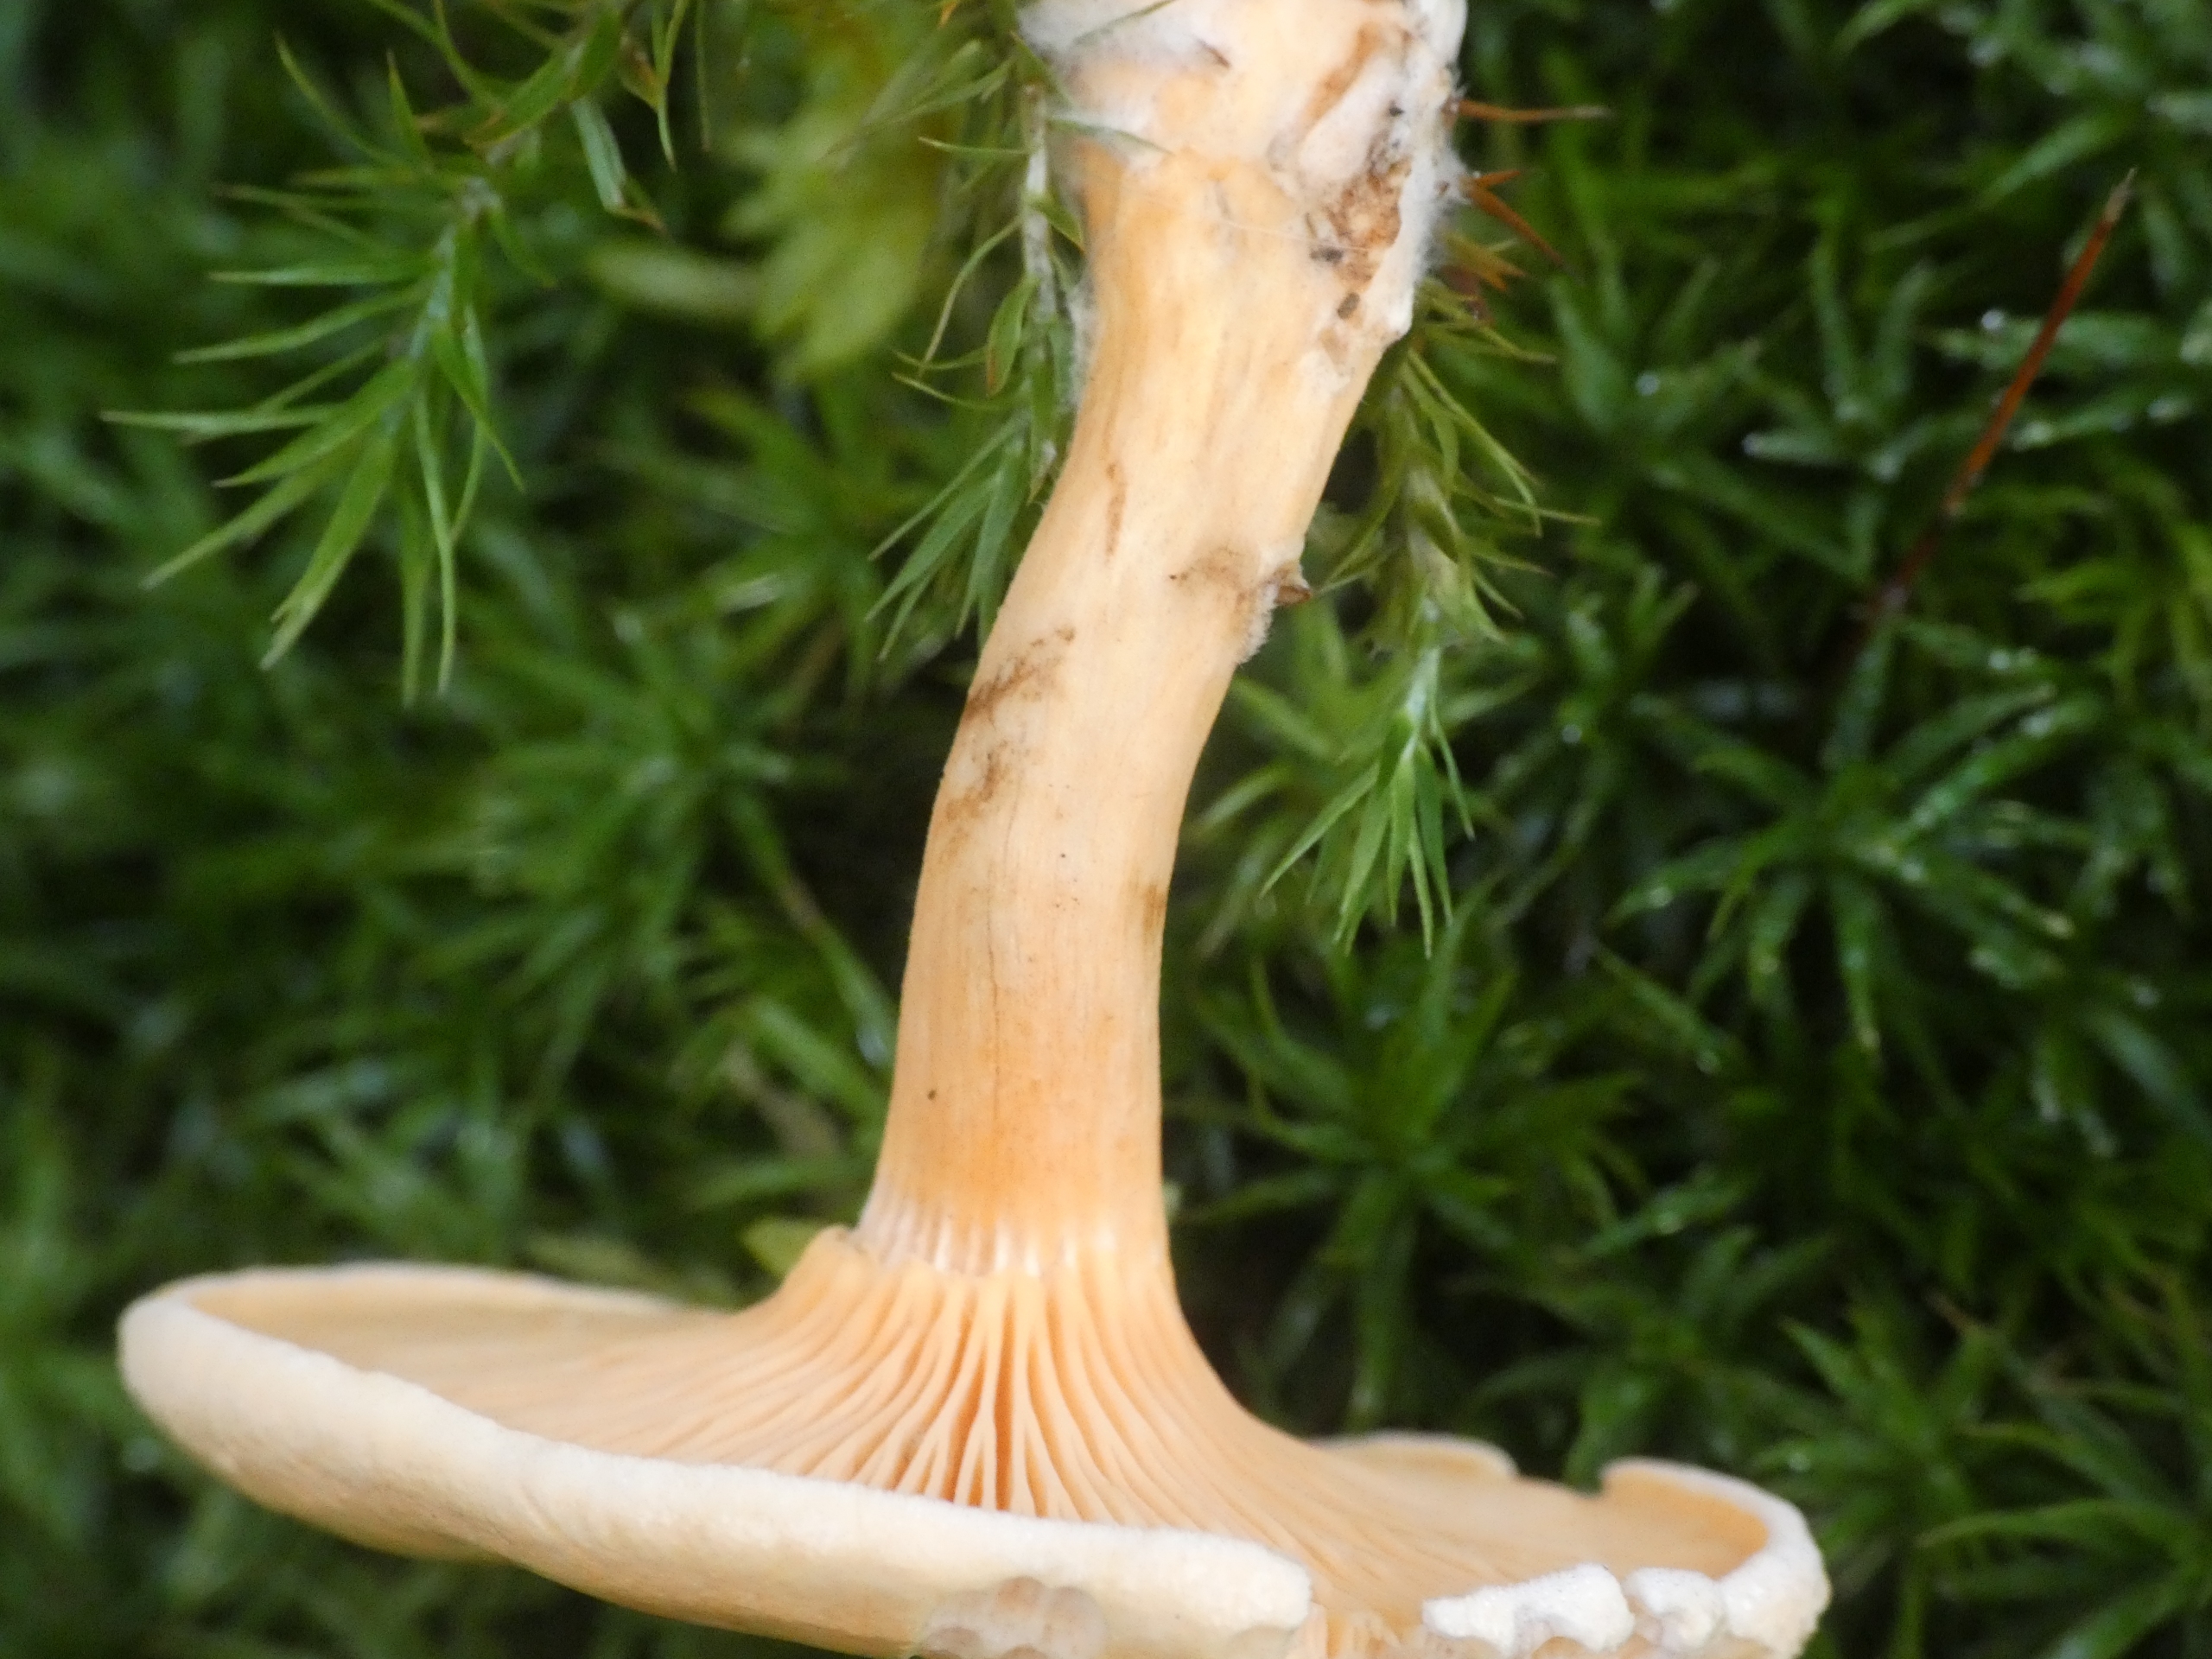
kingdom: Fungi
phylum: Basidiomycota
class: Agaricomycetes
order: Boletales
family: Hygrophoropsidaceae
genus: Hygrophoropsis
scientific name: Hygrophoropsis aurantiaca
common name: Almindelig orangekantarel
